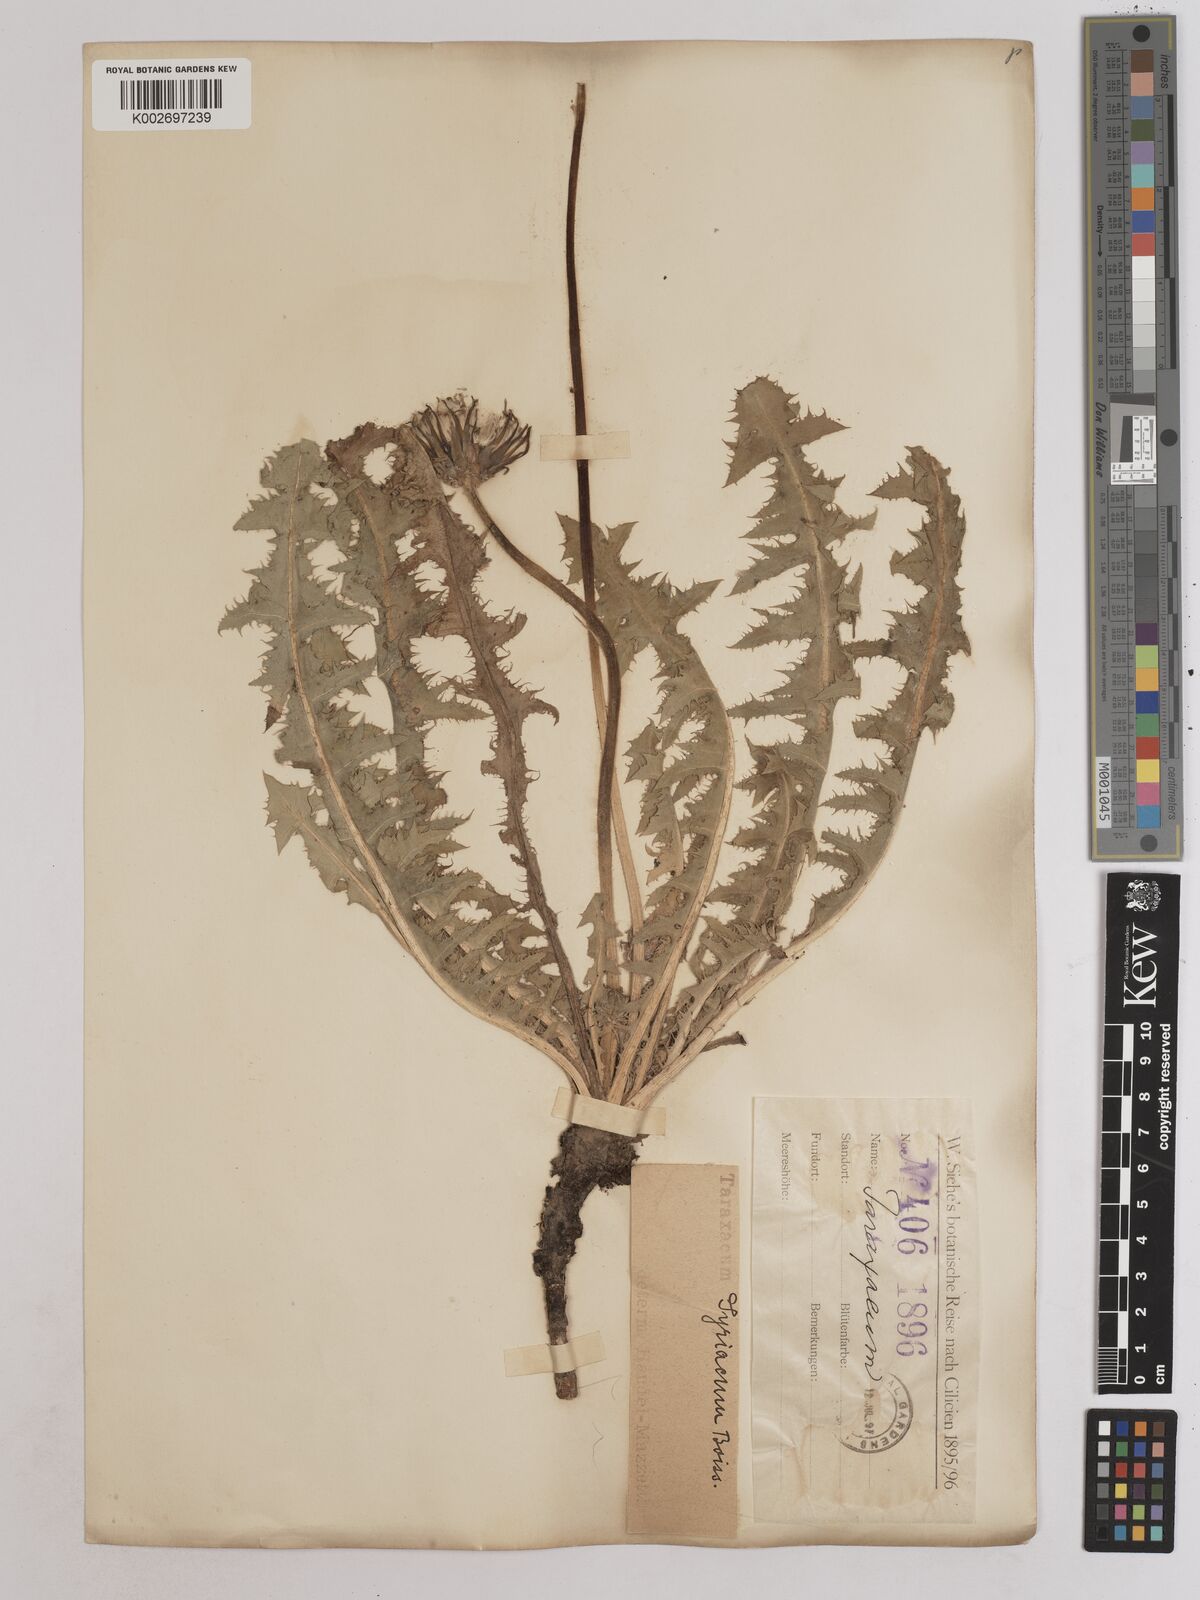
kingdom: Plantae
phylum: Tracheophyta
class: Magnoliopsida
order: Asterales
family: Asteraceae
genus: Taraxacum
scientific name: Taraxacum syriacum
